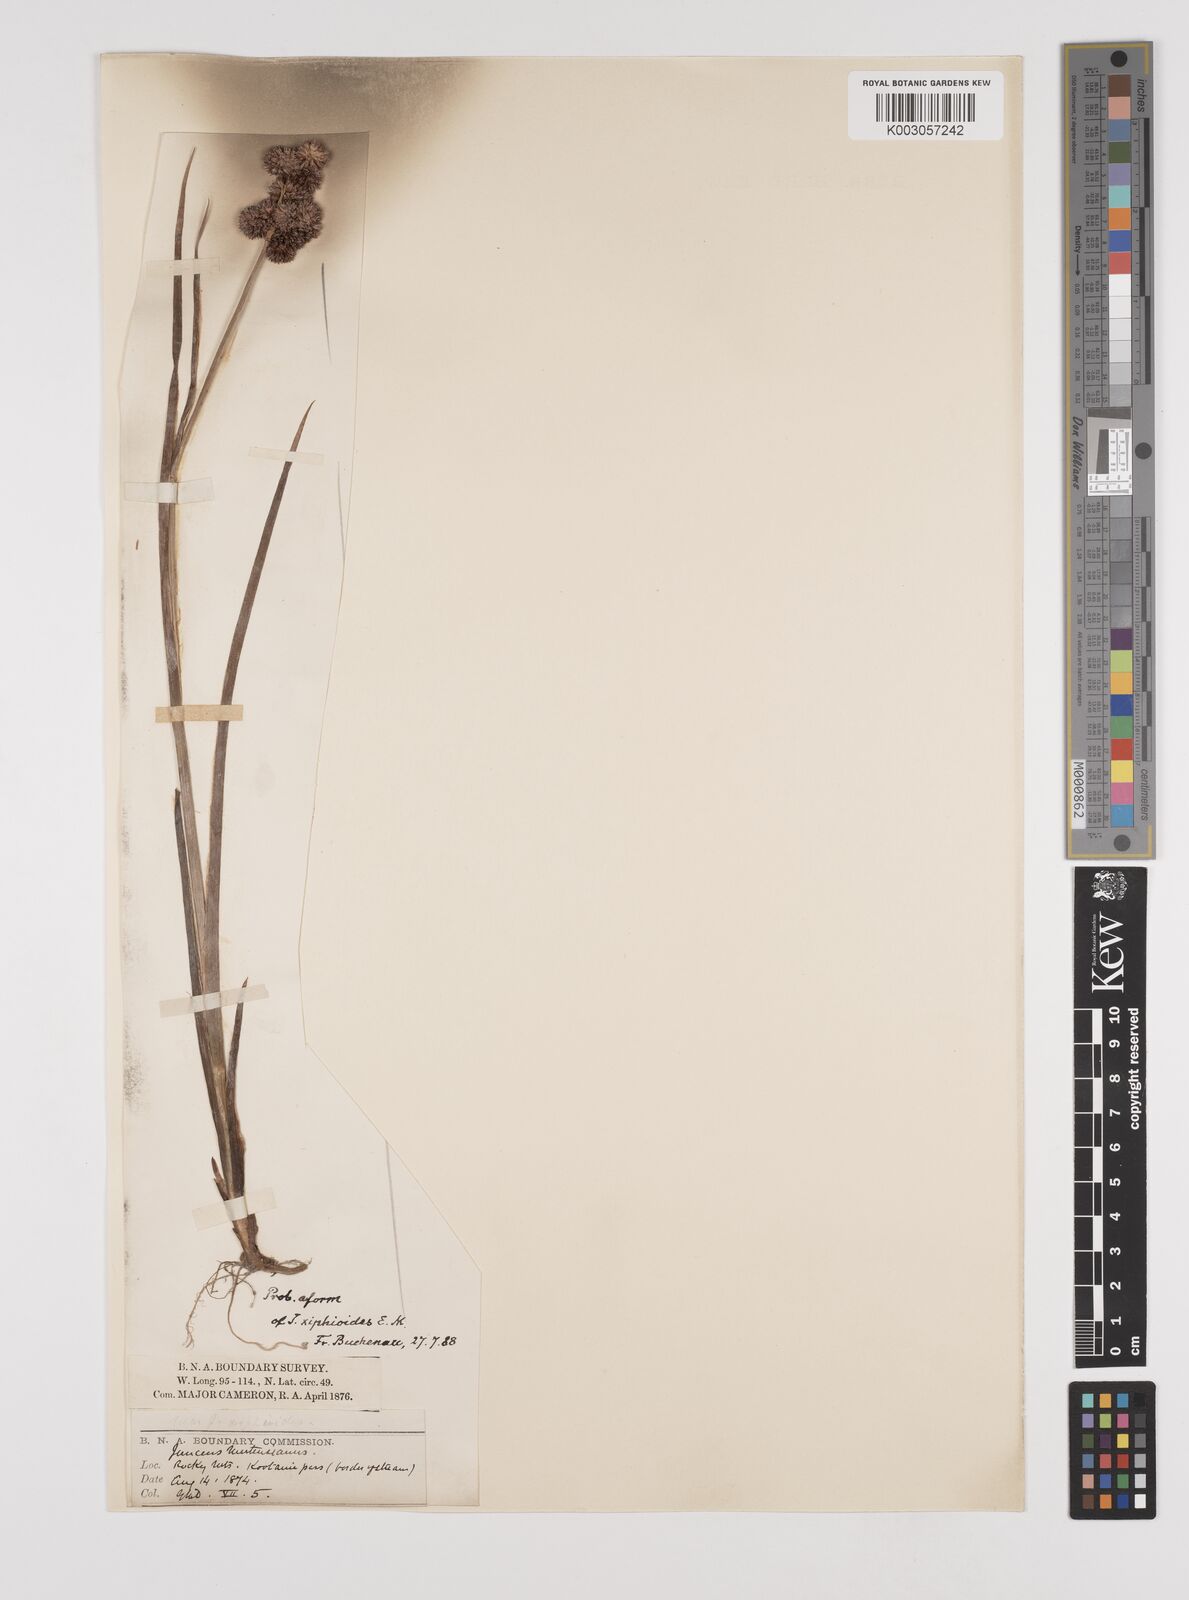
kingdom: Plantae
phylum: Tracheophyta
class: Liliopsida
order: Poales
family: Juncaceae
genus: Juncus
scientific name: Juncus xiphioides
